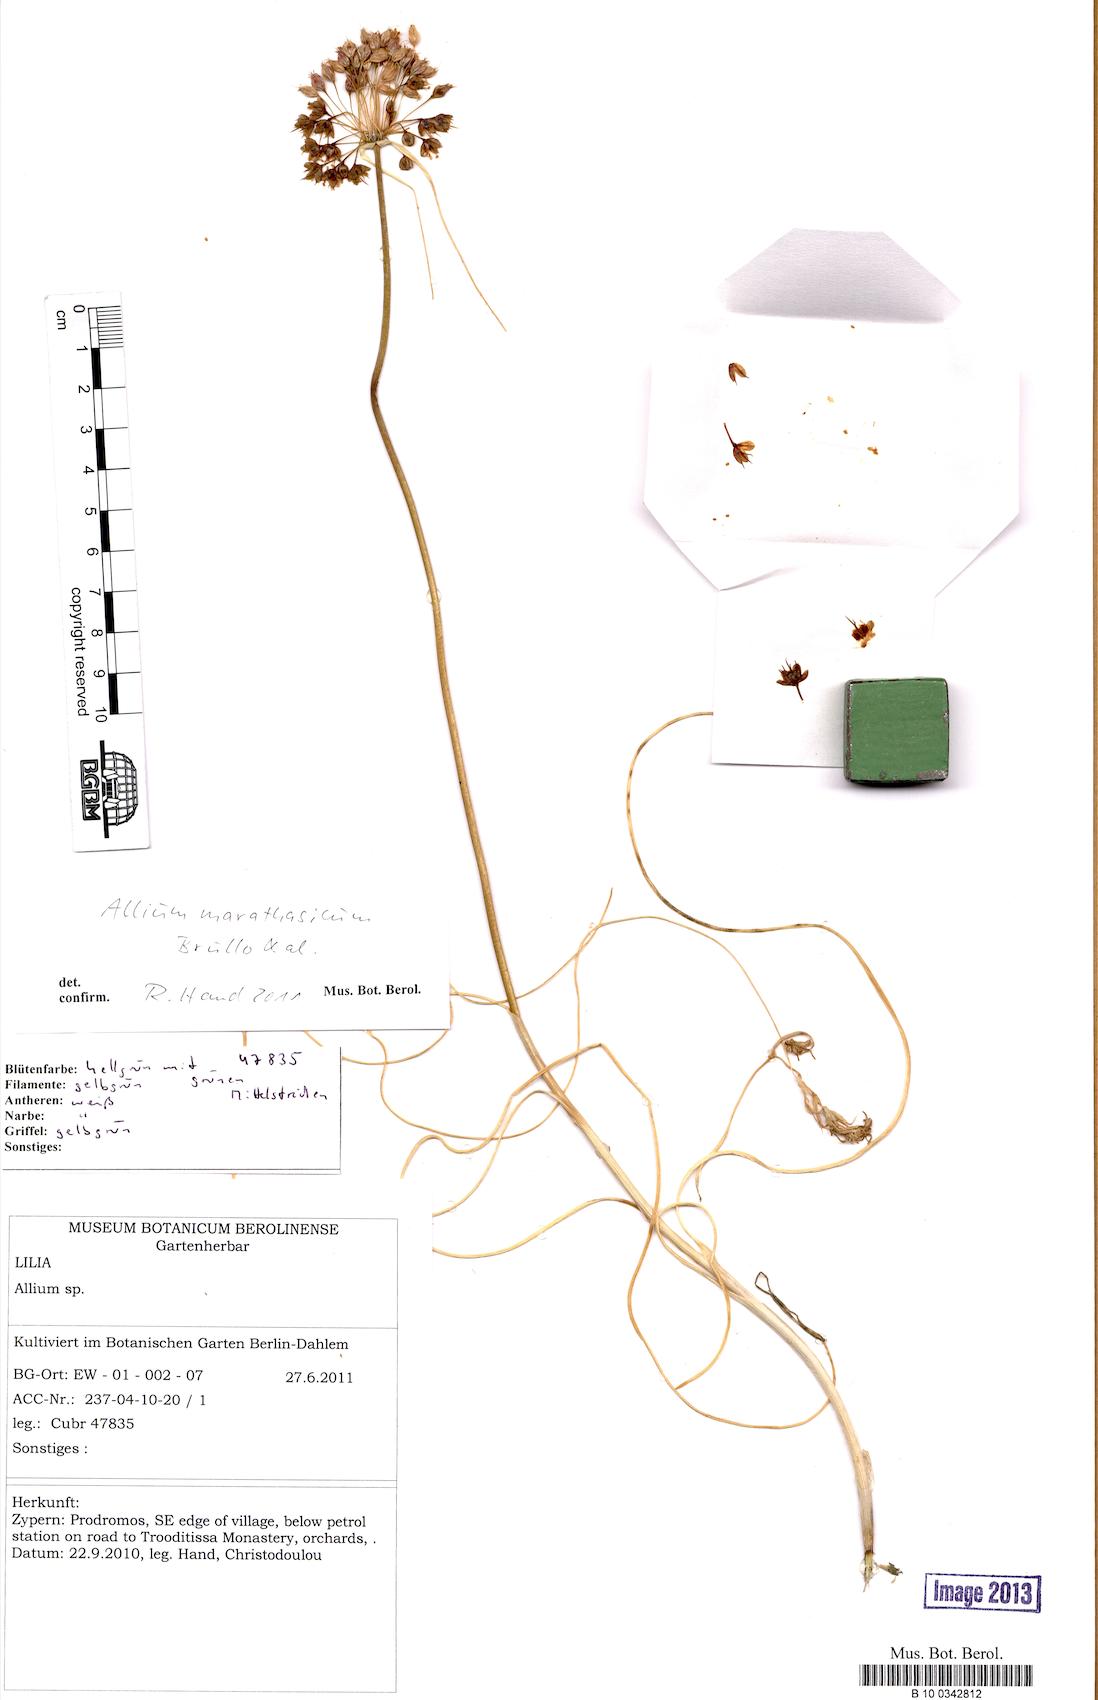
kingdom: Plantae
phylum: Tracheophyta
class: Liliopsida
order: Asparagales
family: Amaryllidaceae
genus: Allium
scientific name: Allium marathasicum
